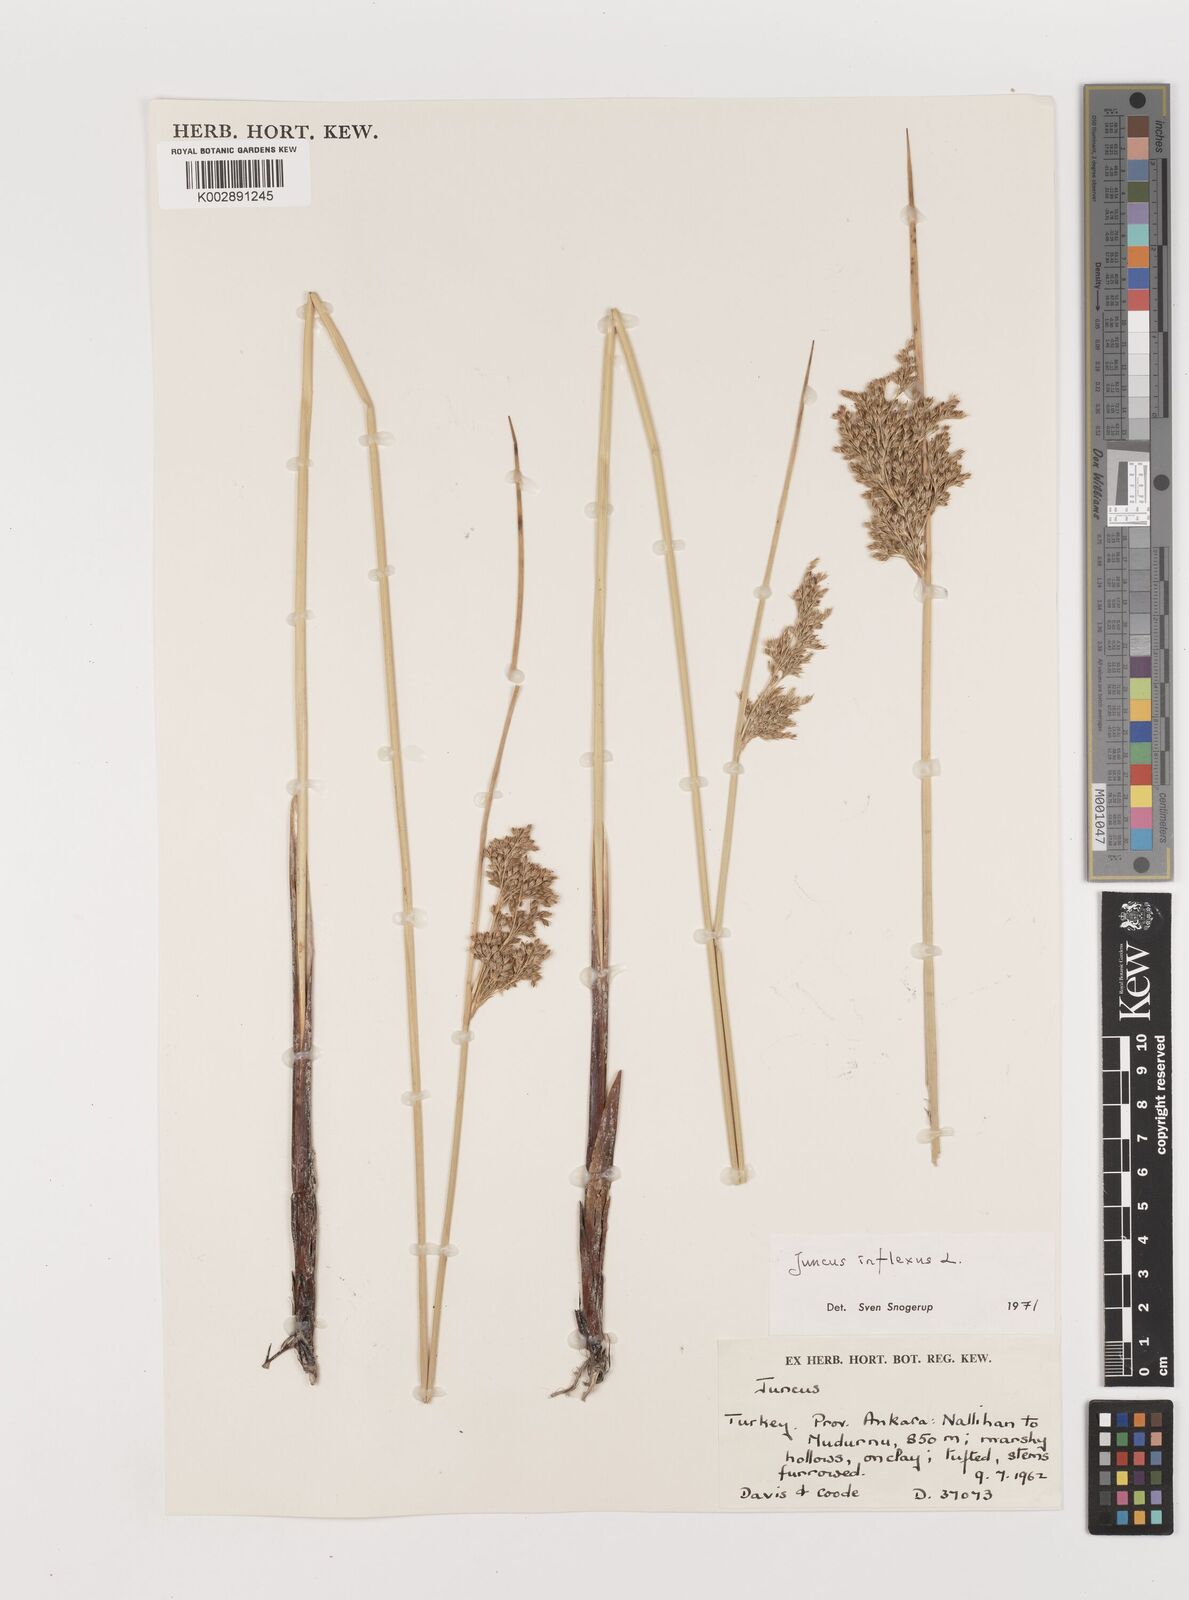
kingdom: Plantae
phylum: Tracheophyta
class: Liliopsida
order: Poales
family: Juncaceae
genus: Juncus
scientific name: Juncus inflexus
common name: Hard rush
